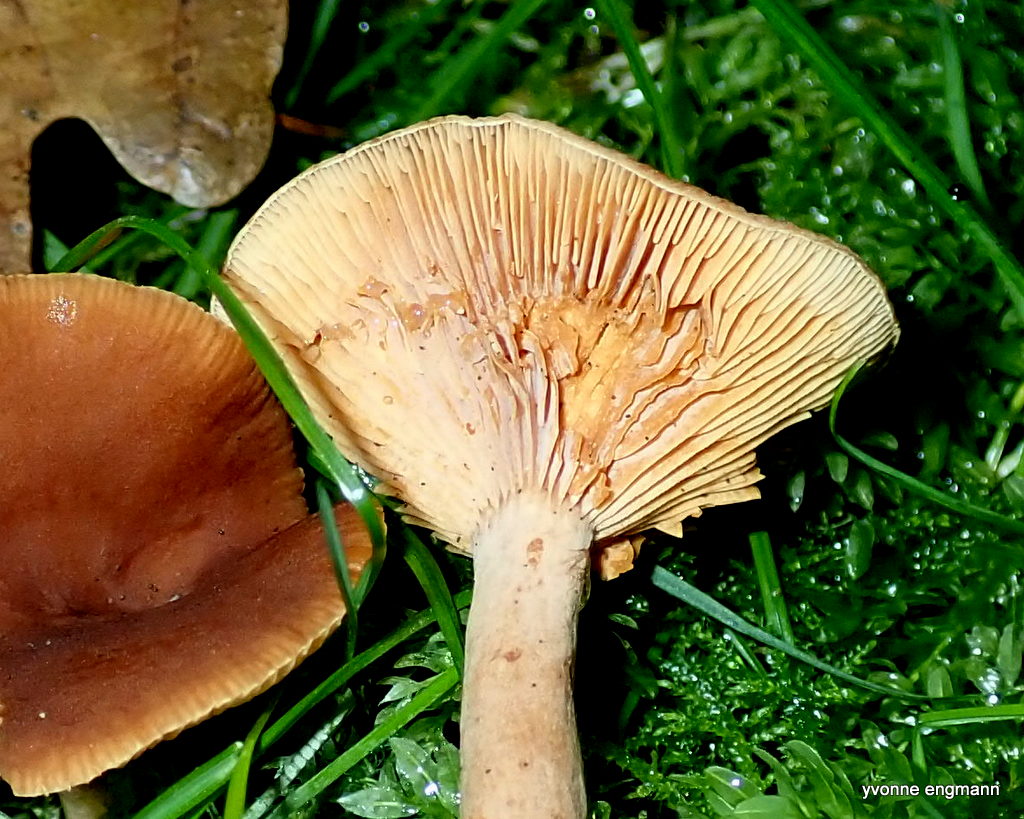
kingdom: Fungi
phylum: Basidiomycota
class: Agaricomycetes
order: Russulales
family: Russulaceae
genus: Lactarius
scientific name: Lactarius
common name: mælkehat
